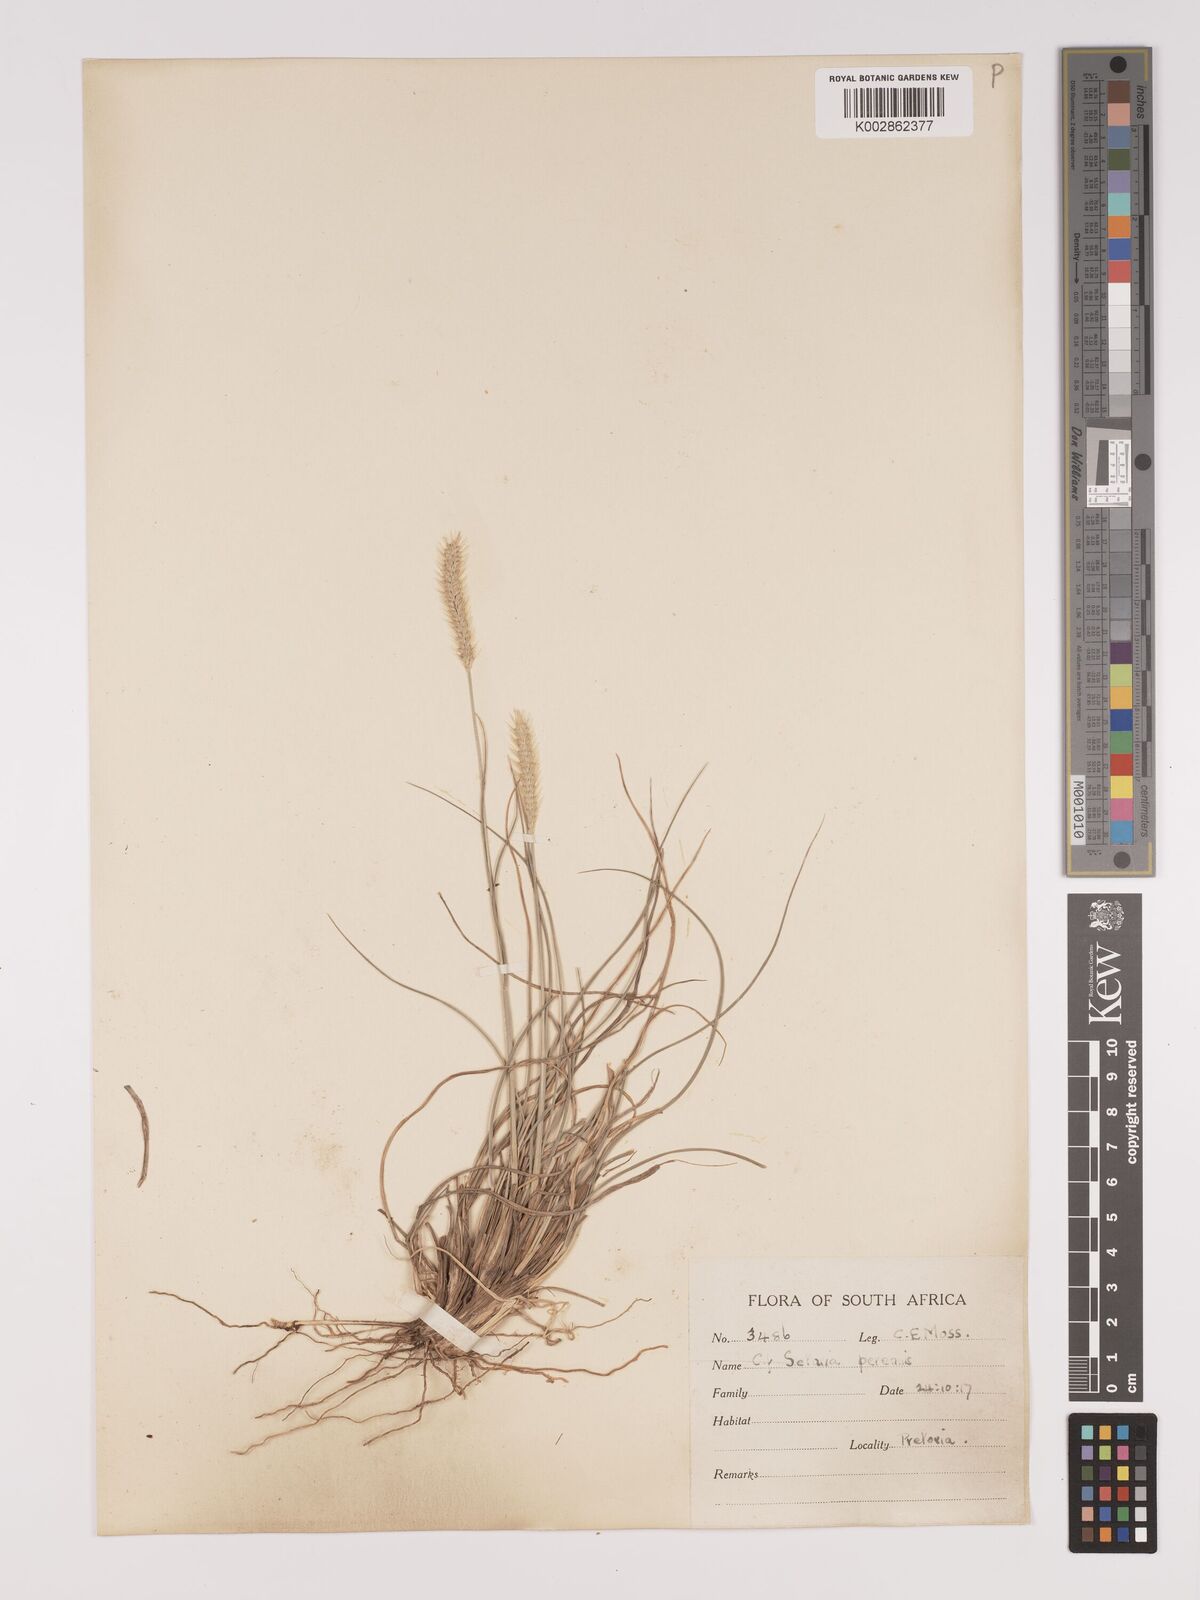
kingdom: Plantae
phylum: Tracheophyta
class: Liliopsida
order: Poales
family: Poaceae
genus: Setaria
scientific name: Setaria
